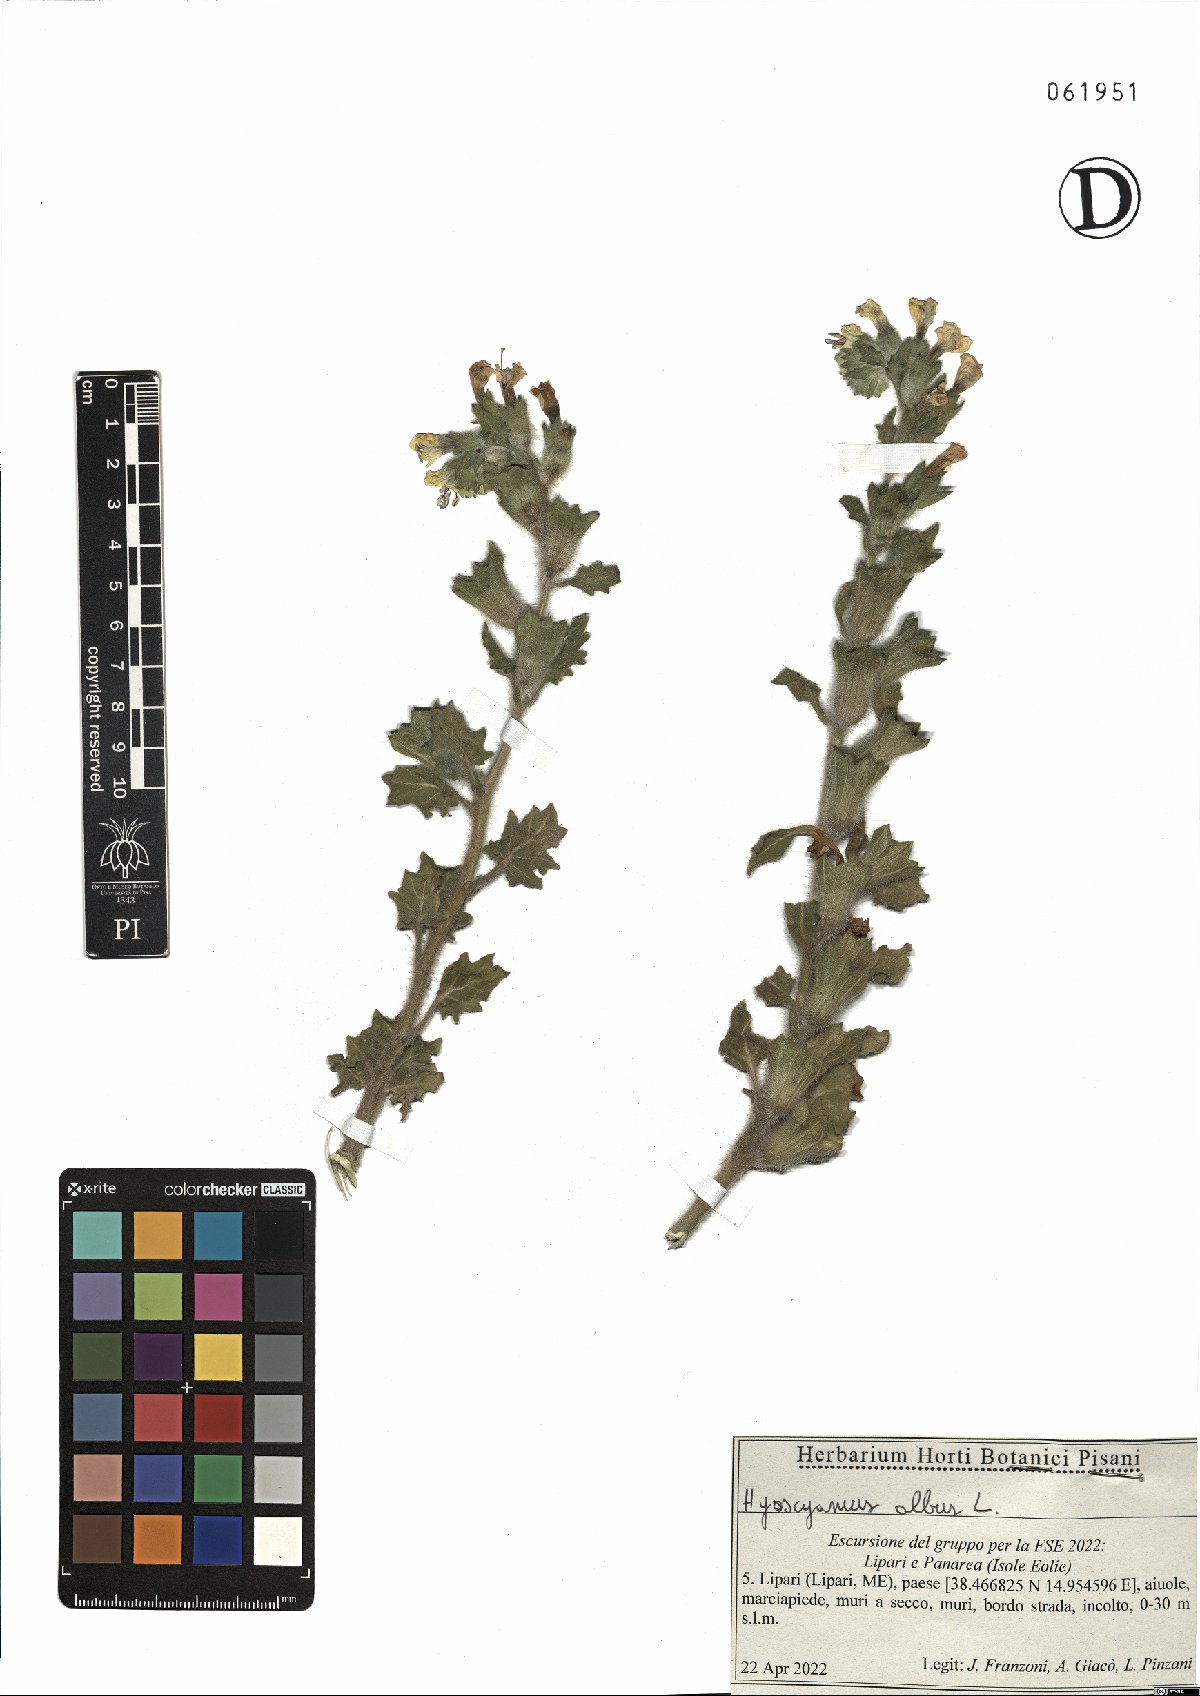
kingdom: Plantae
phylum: Tracheophyta
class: Magnoliopsida
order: Solanales
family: Solanaceae
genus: Hyoscyamus
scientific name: Hyoscyamus albus
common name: White henbane
